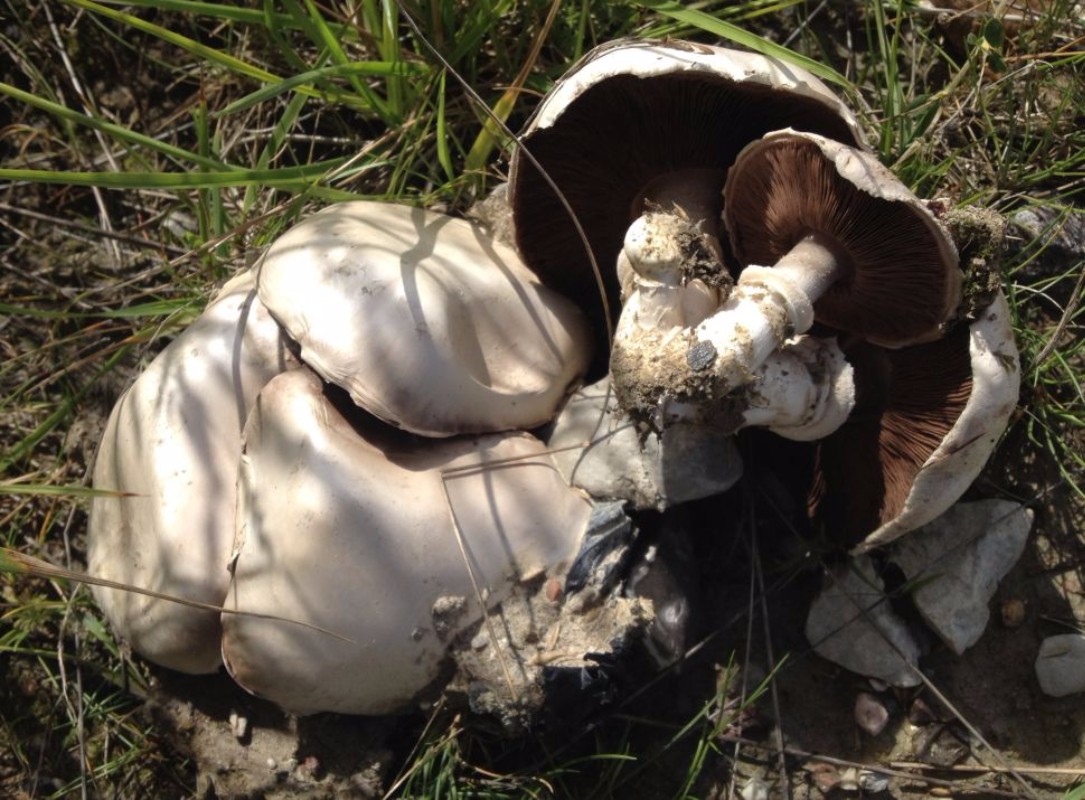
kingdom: Fungi
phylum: Basidiomycota
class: Agaricomycetes
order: Agaricales
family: Agaricaceae
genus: Agaricus
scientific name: Agaricus bitorquis
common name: vej-champignon
